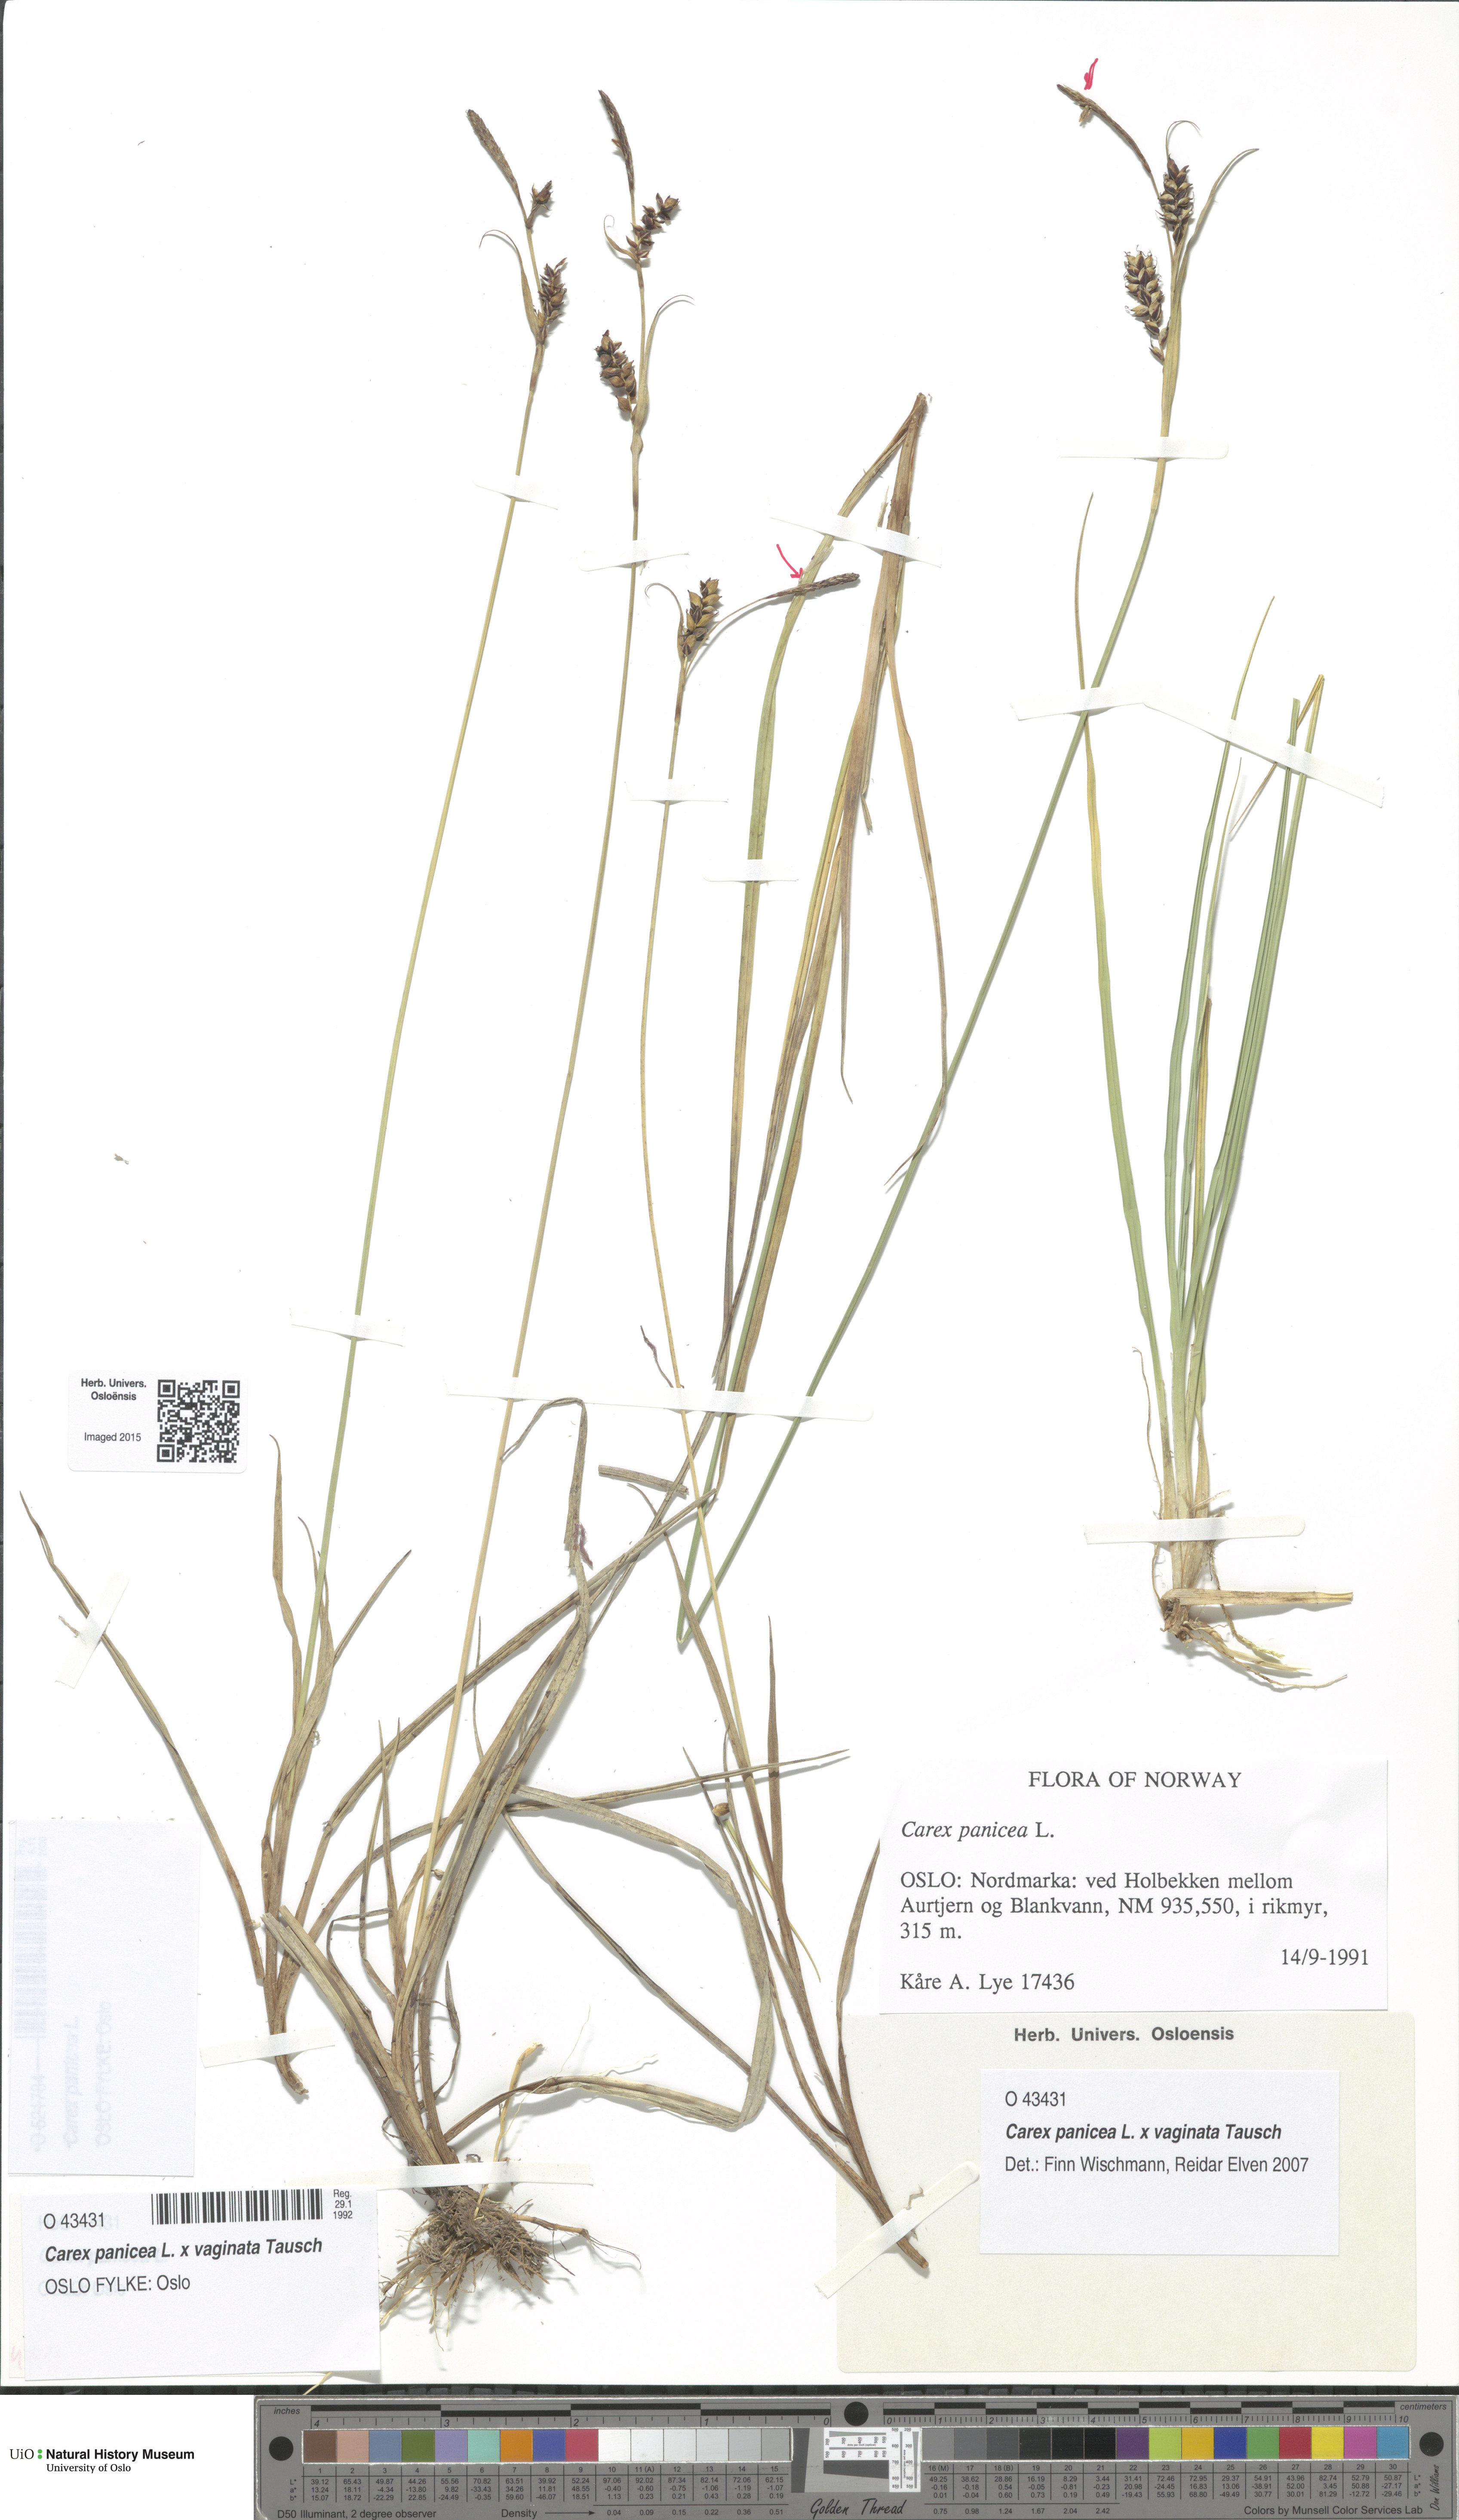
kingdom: Plantae
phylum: Tracheophyta
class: Liliopsida
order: Poales
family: Cyperaceae
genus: Carex
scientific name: Carex
